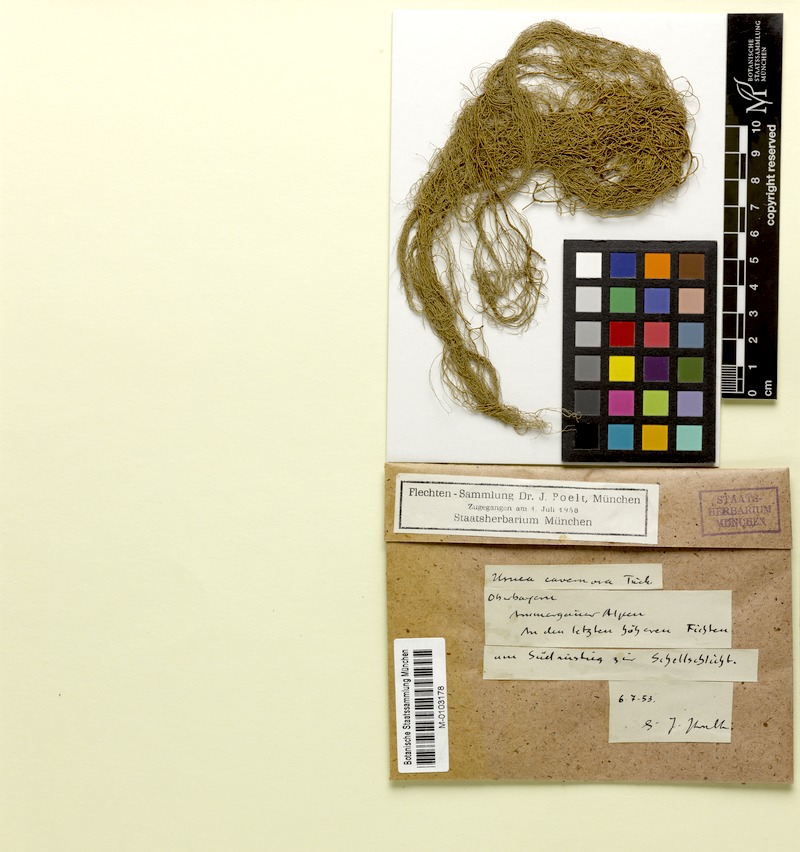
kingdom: Fungi
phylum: Ascomycota
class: Lecanoromycetes
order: Lecanorales
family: Parmeliaceae
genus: Usnea
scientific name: Usnea cavernosa
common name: Pitted beard lichen
